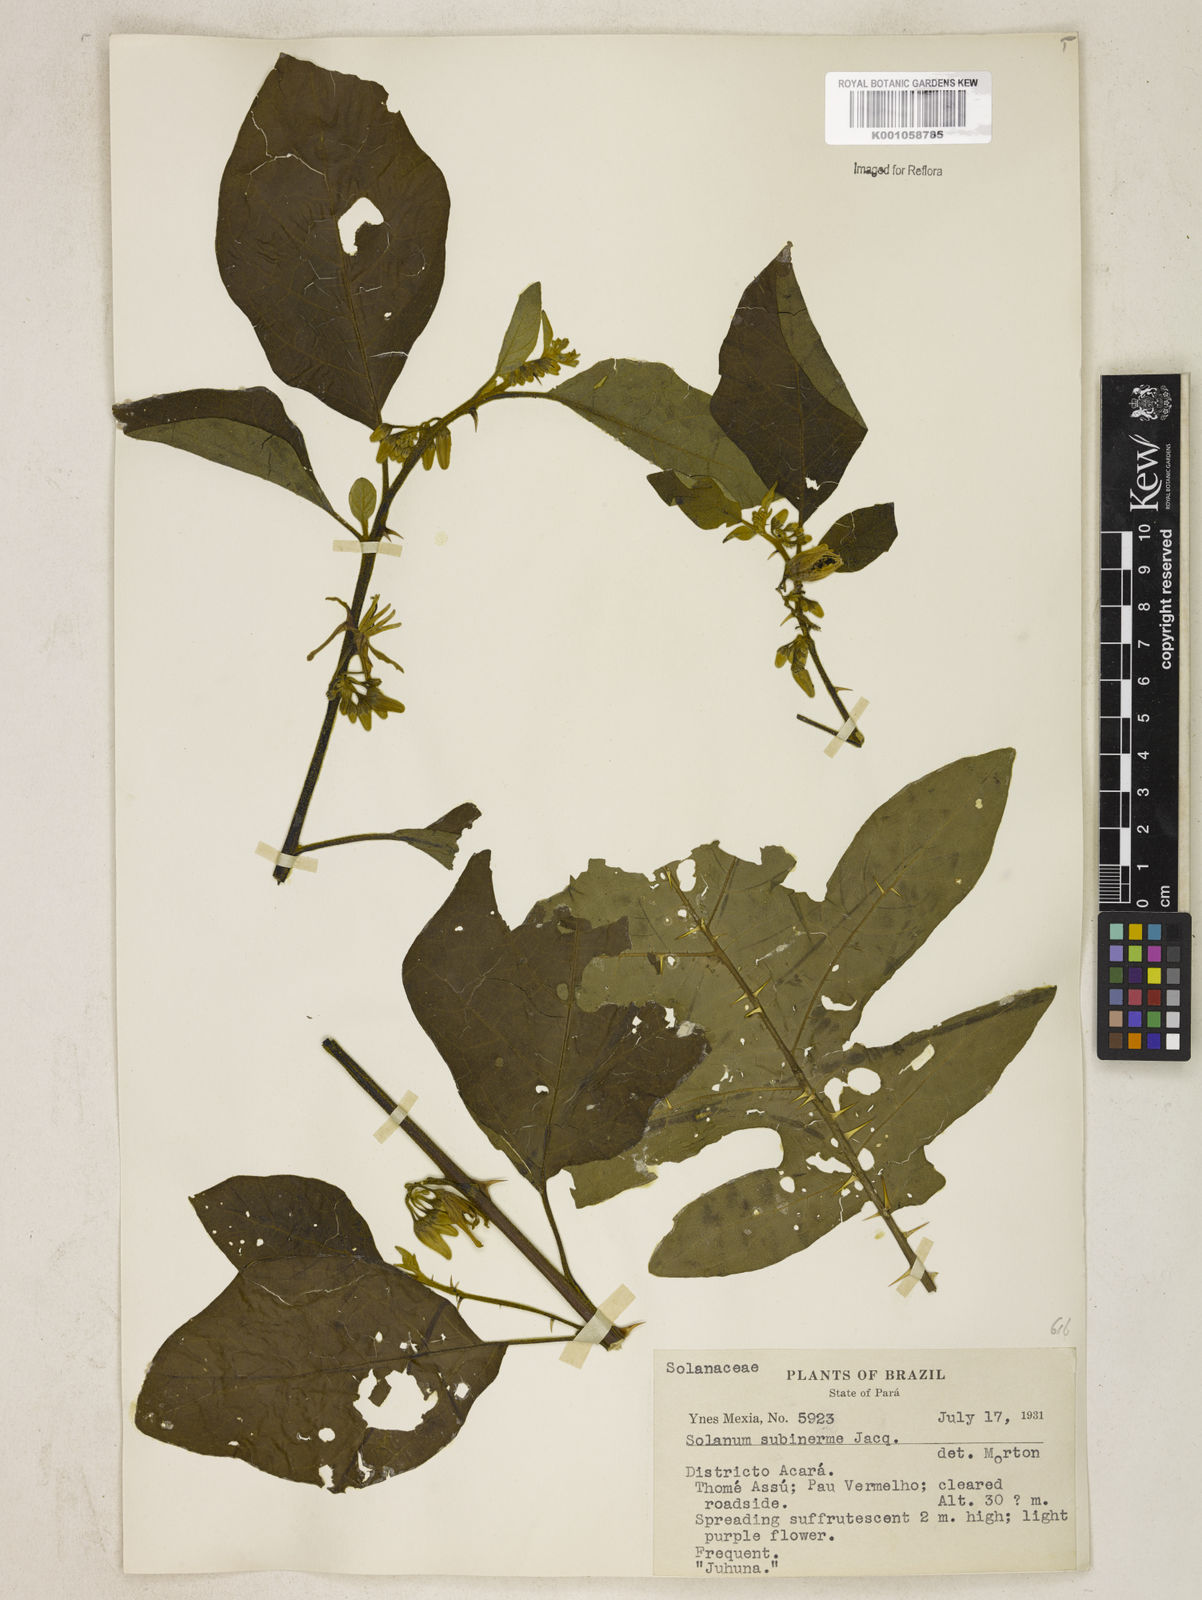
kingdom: Plantae
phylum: Tracheophyta
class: Magnoliopsida
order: Solanales
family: Solanaceae
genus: Solanum
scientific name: Solanum subinerme
